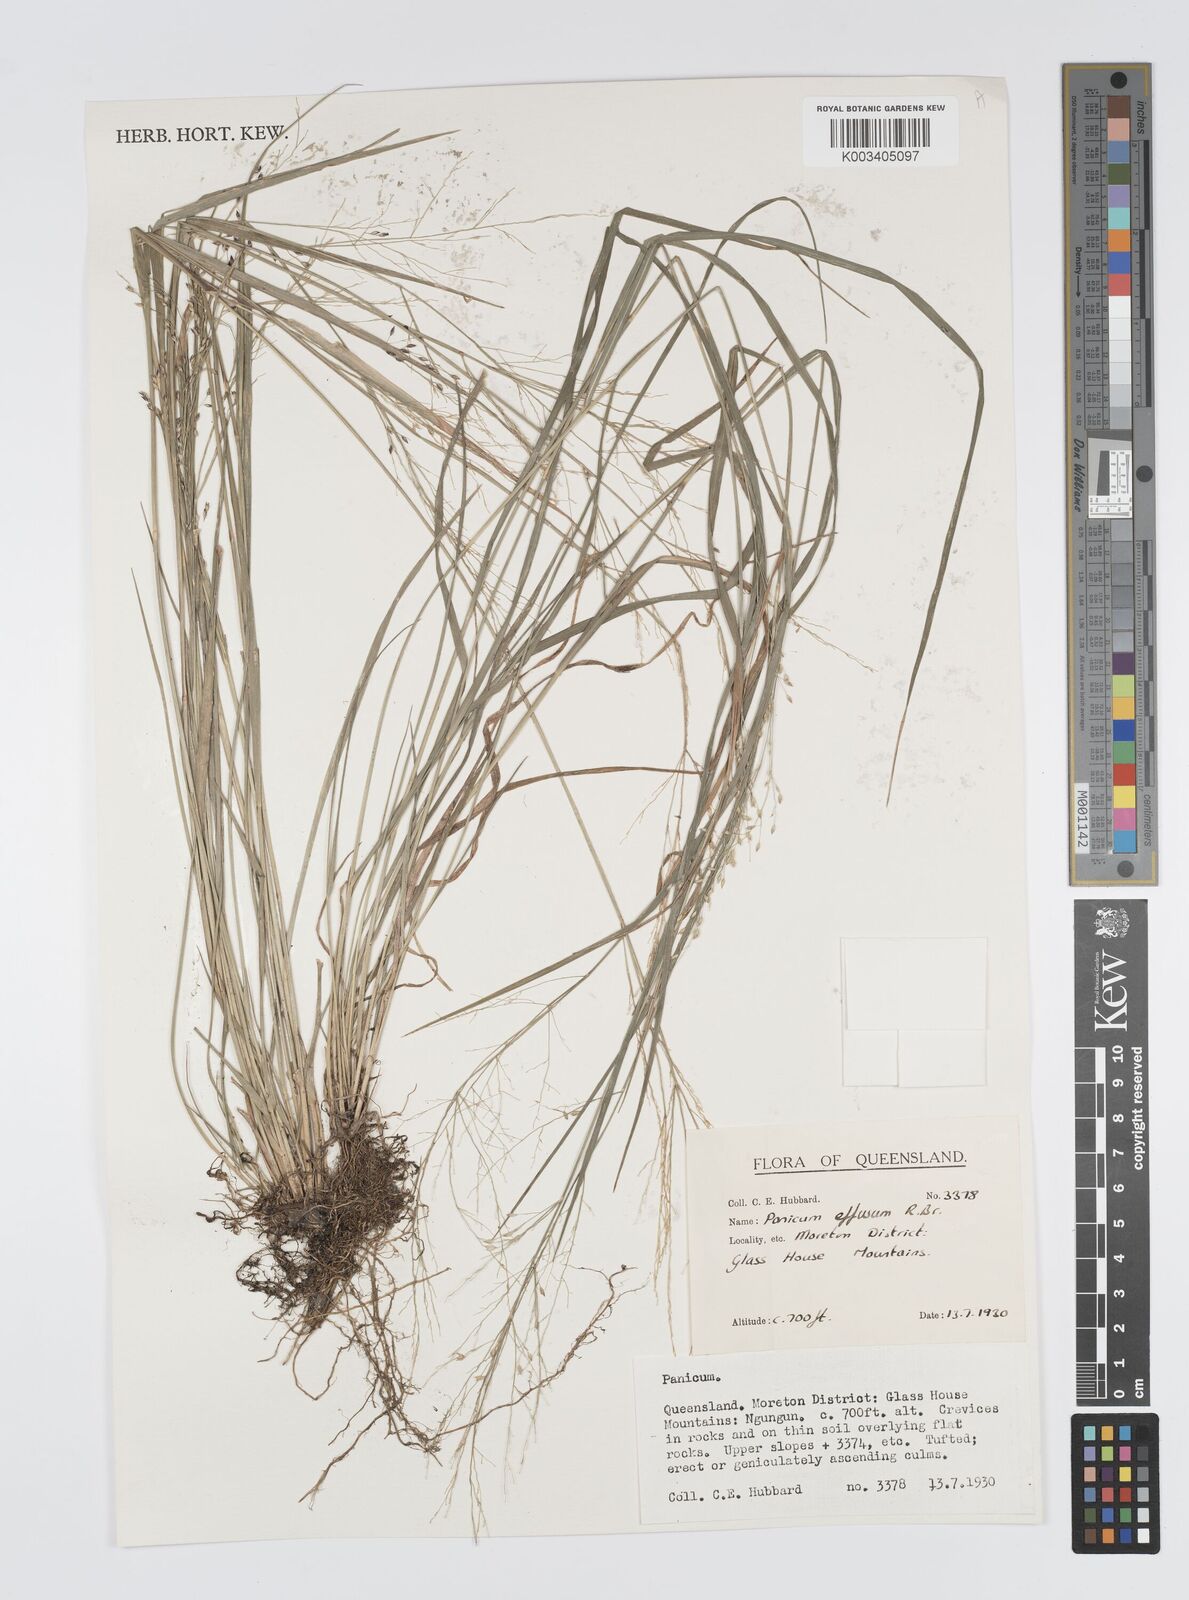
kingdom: Plantae
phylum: Tracheophyta
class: Liliopsida
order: Poales
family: Poaceae
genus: Panicum
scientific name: Panicum effusum
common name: Hairy panic grass
